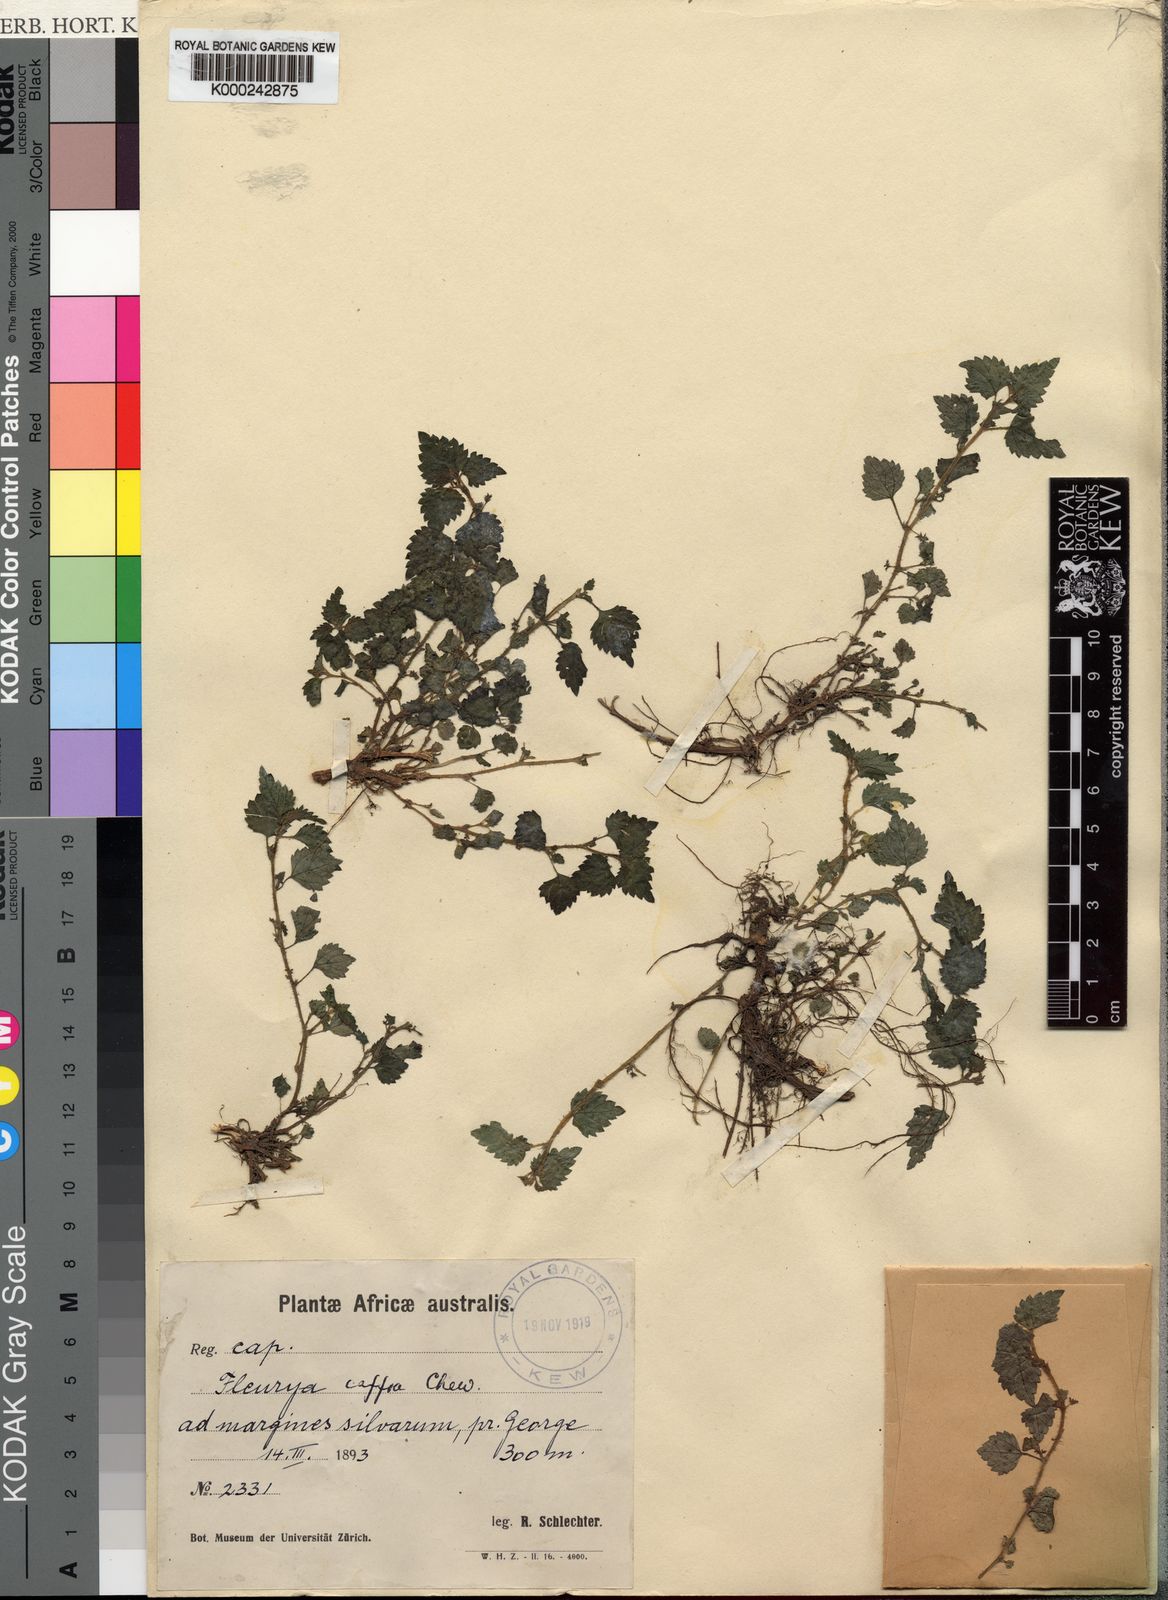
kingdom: Plantae
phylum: Tracheophyta
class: Magnoliopsida
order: Rosales
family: Urticaceae
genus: Laportea
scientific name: Laportea peduncularis
